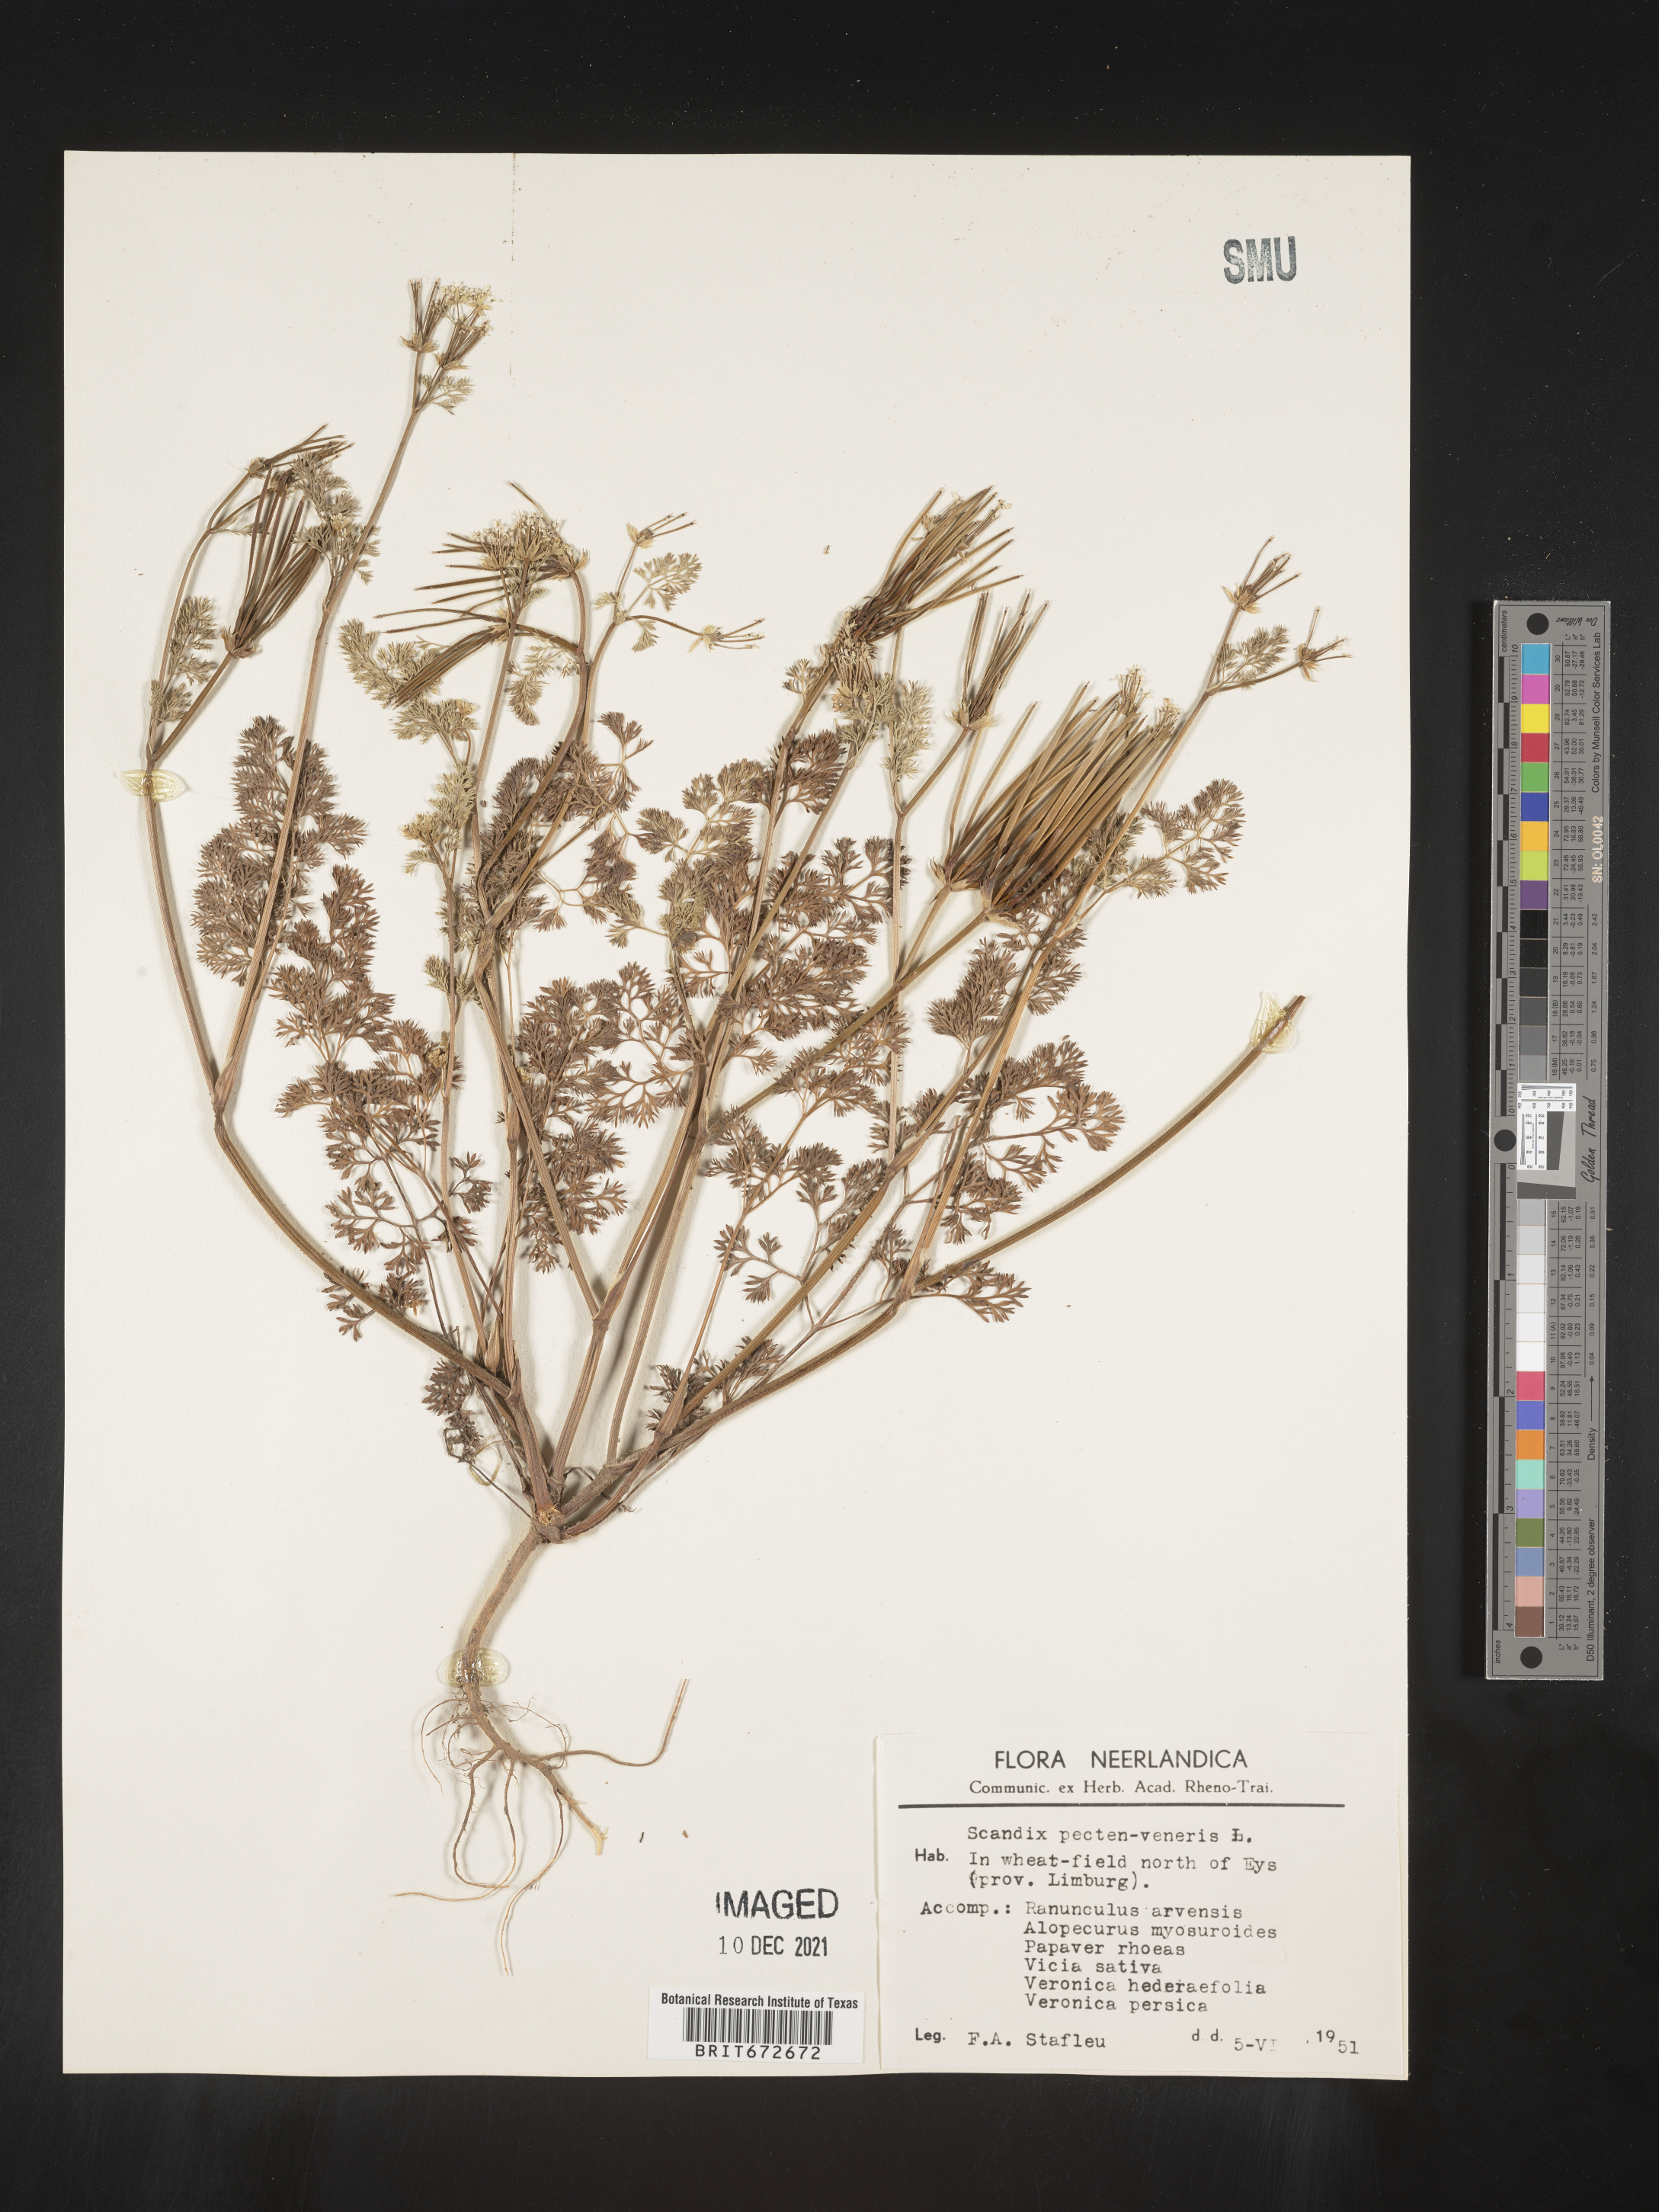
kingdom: Plantae
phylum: Tracheophyta
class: Magnoliopsida
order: Apiales
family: Apiaceae
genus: Scandix
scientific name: Scandix
